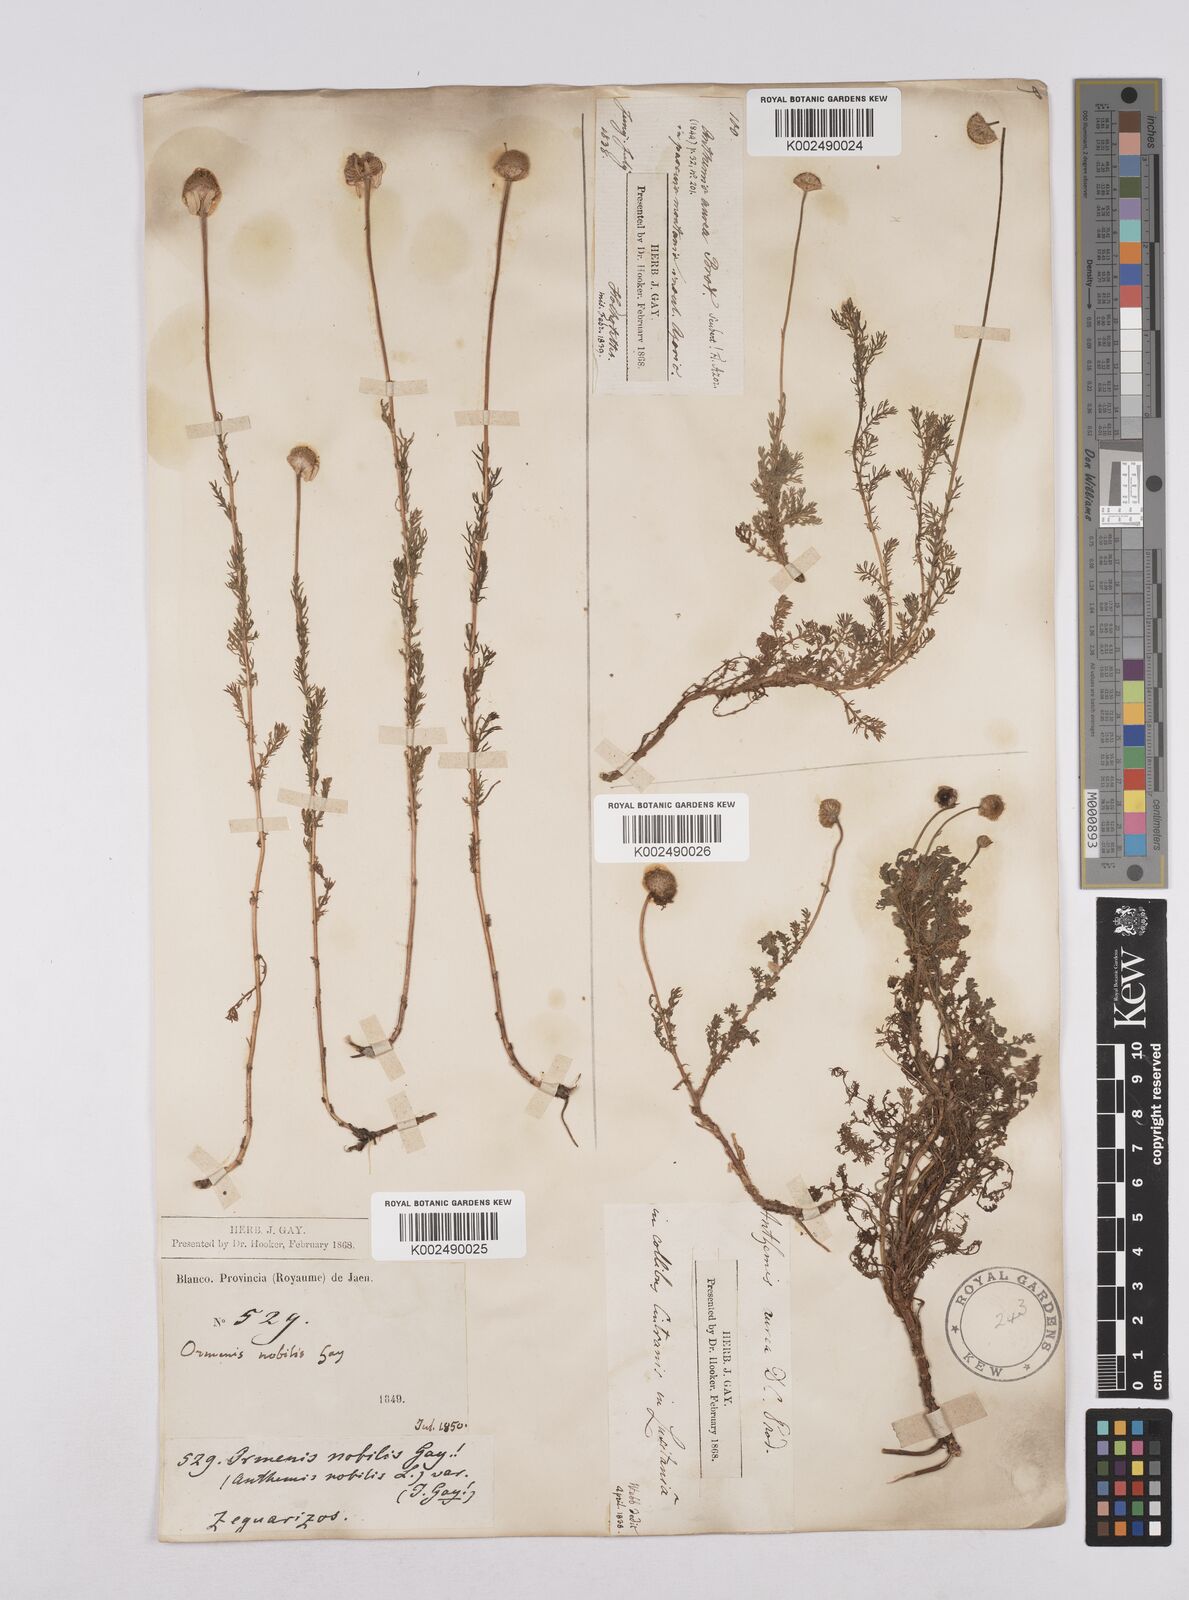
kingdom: Plantae
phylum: Tracheophyta
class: Magnoliopsida
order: Asterales
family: Asteraceae
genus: Matricaria
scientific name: Matricaria aurea
